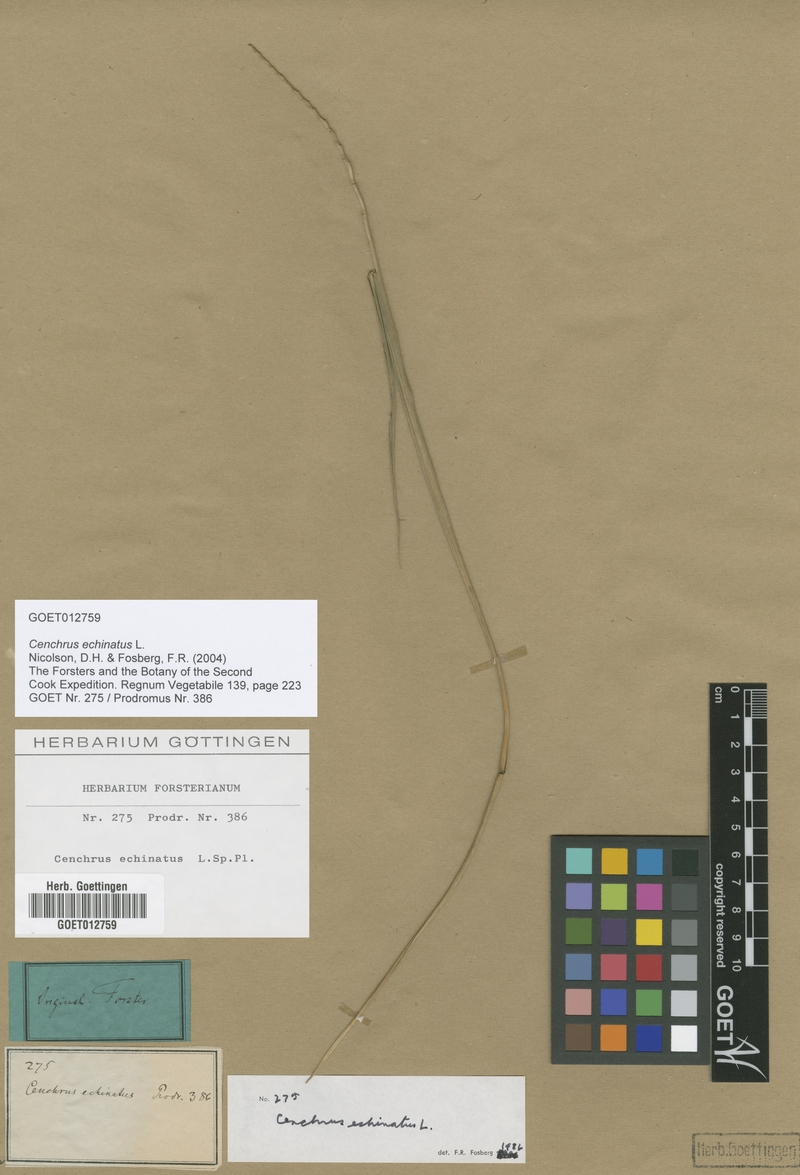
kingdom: Plantae
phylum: Tracheophyta
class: Liliopsida
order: Poales
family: Poaceae
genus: Cenchrus
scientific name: Cenchrus echinatus
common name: Southern sandbur
